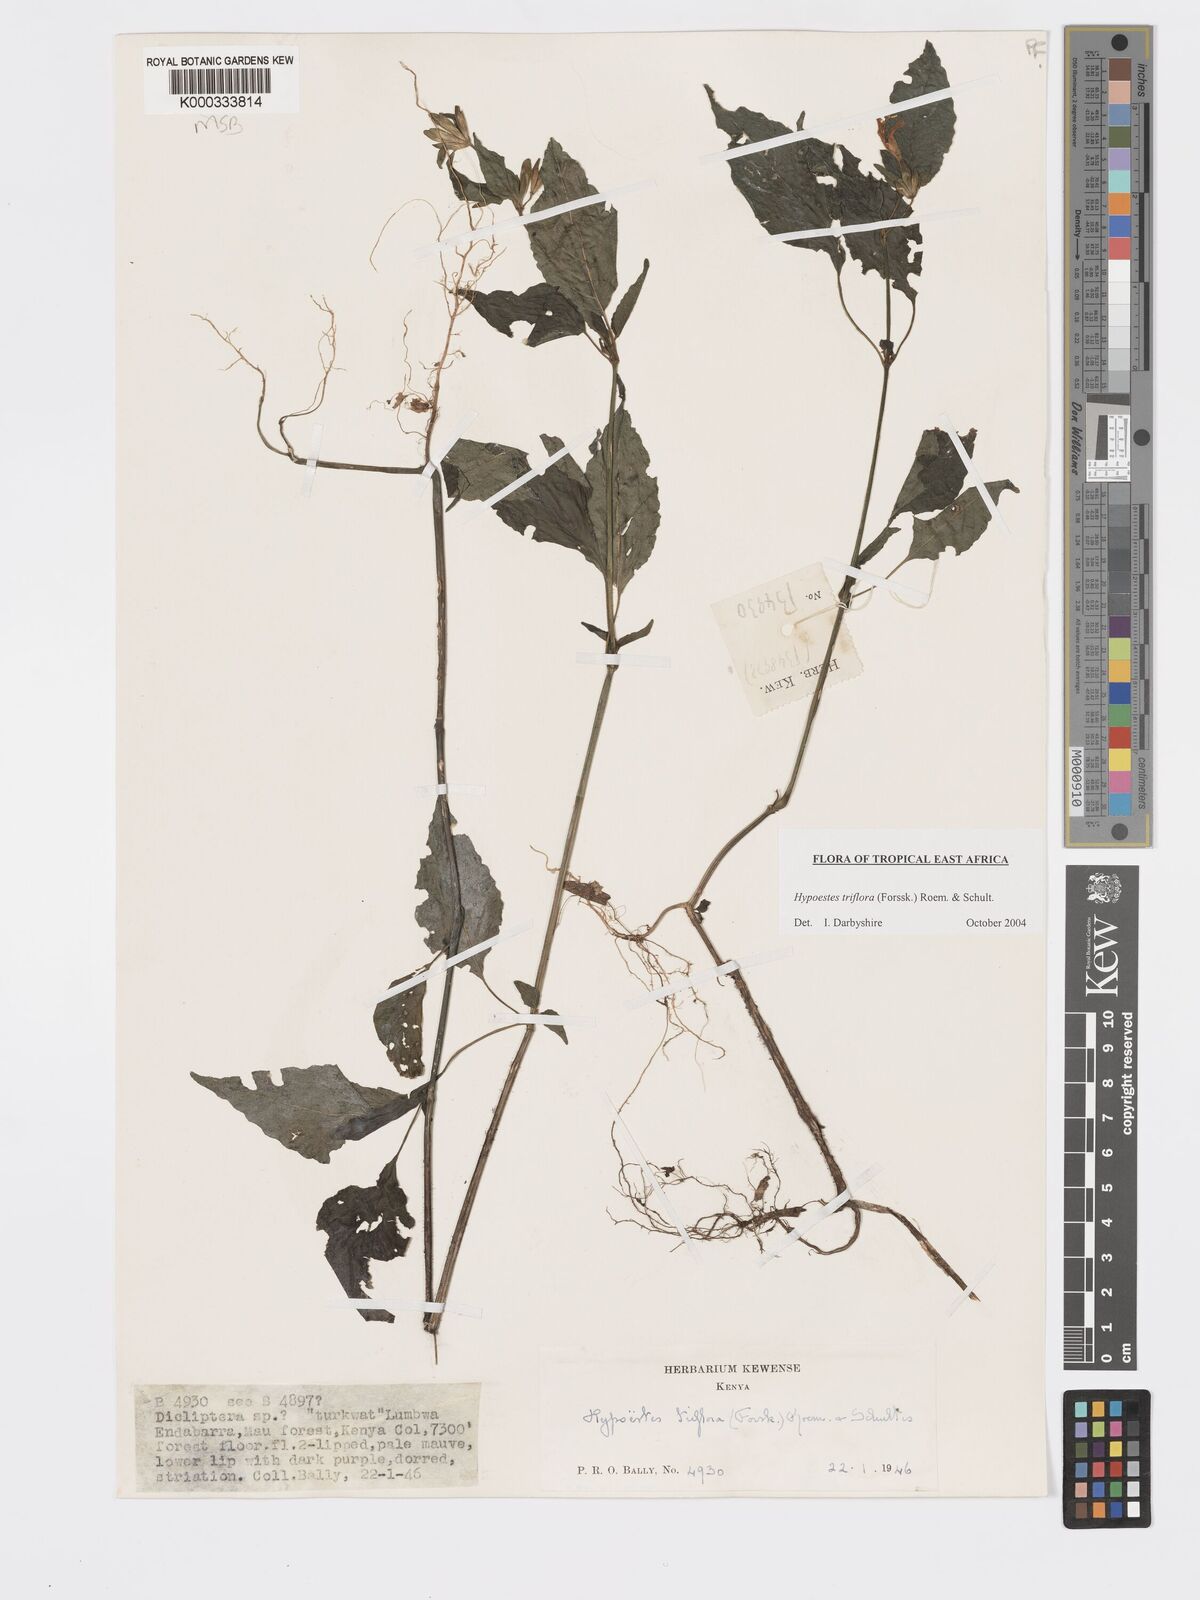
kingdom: Plantae
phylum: Tracheophyta
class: Magnoliopsida
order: Lamiales
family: Acanthaceae
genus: Hypoestes
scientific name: Hypoestes triflora
